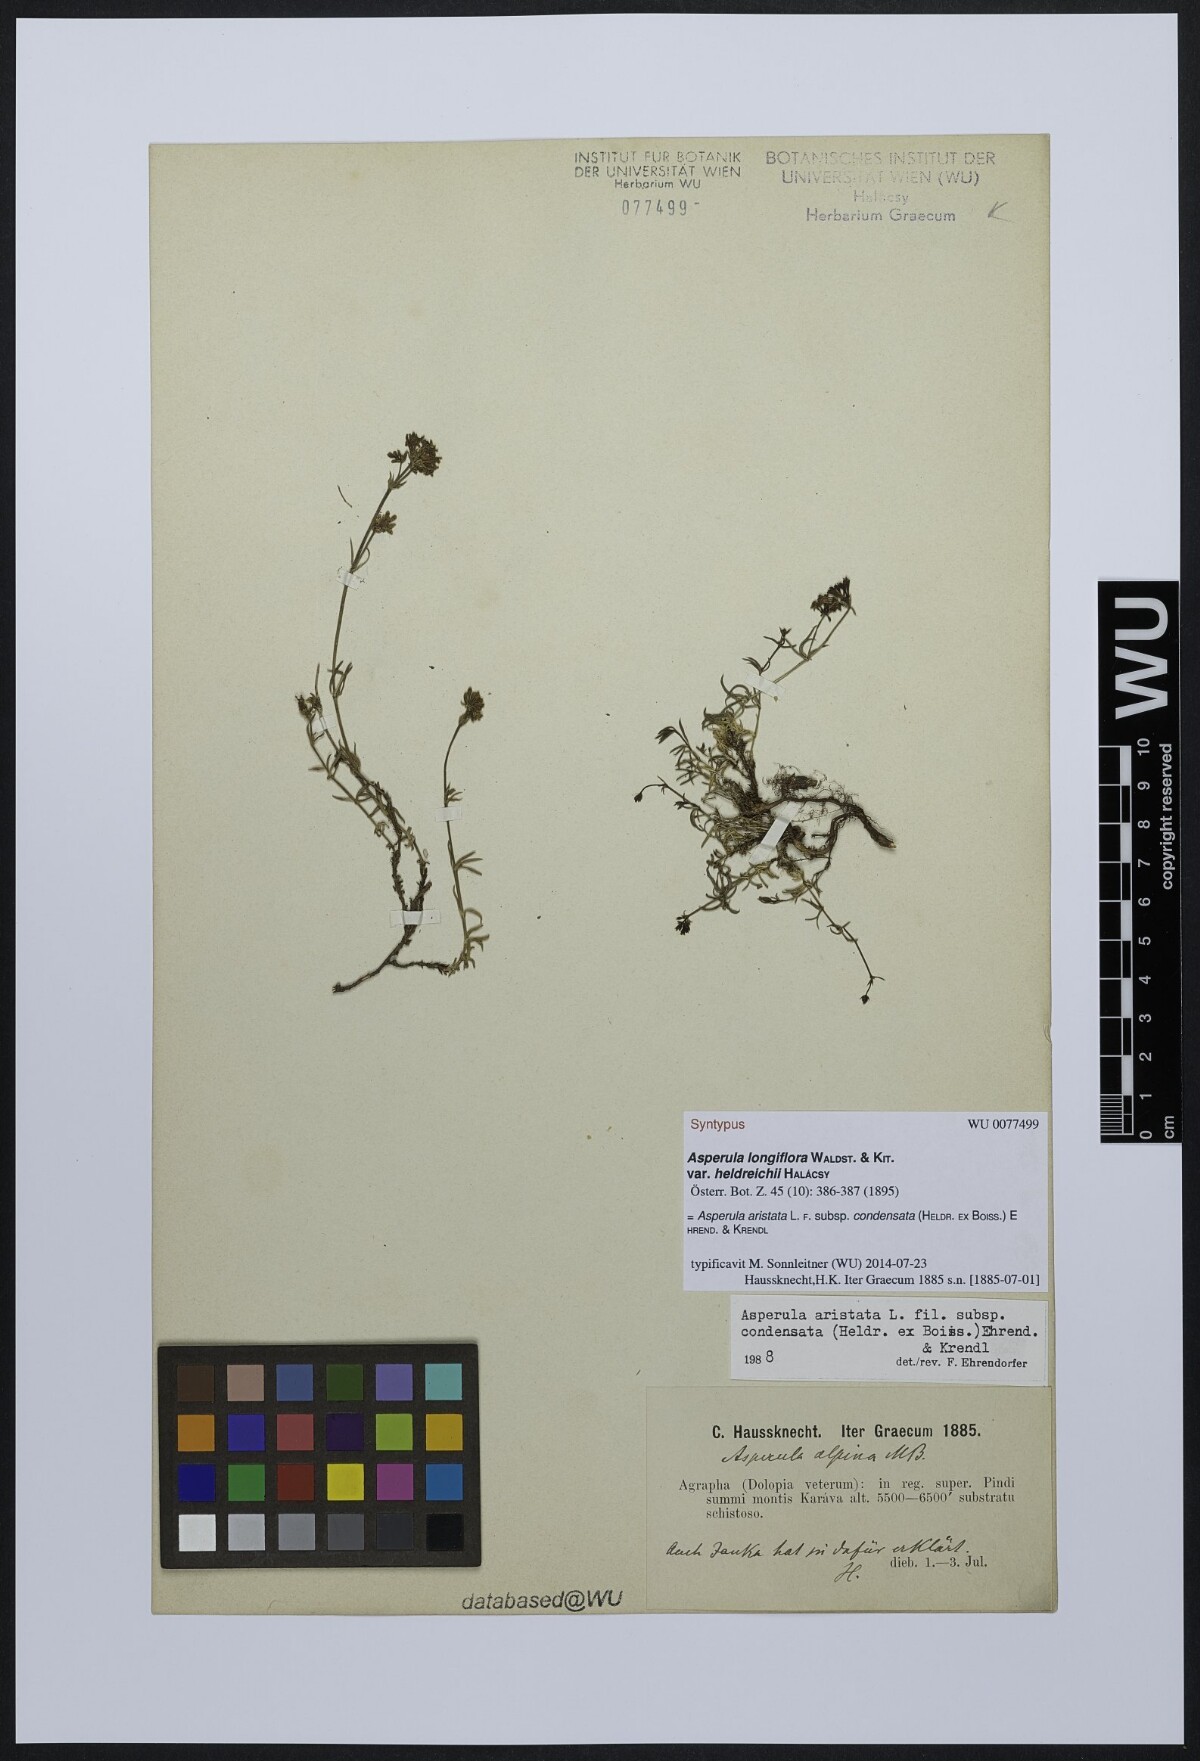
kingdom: Plantae
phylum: Tracheophyta
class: Magnoliopsida
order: Gentianales
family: Rubiaceae
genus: Asperula
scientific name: Asperula longiflora
